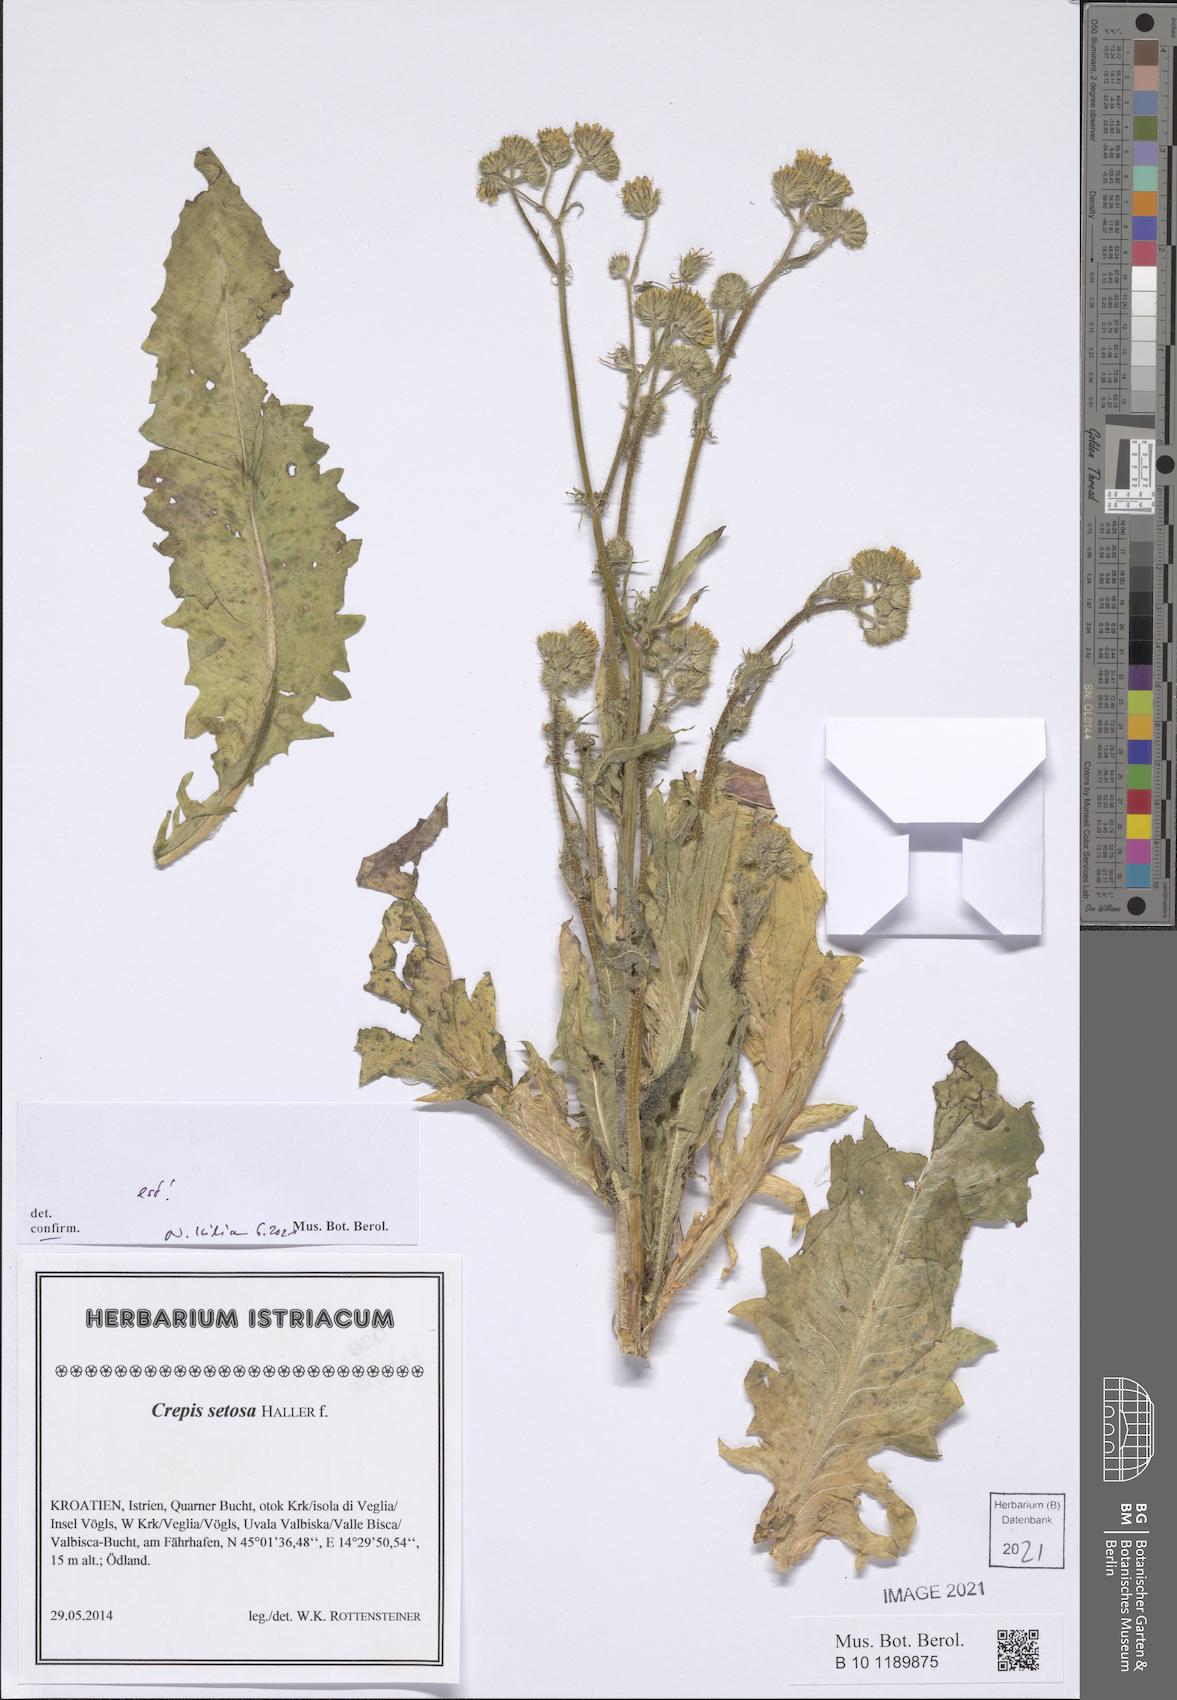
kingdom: Plantae
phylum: Tracheophyta
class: Magnoliopsida
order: Asterales
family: Asteraceae
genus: Crepis
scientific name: Crepis setosa
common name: Bristly hawk's-beard
